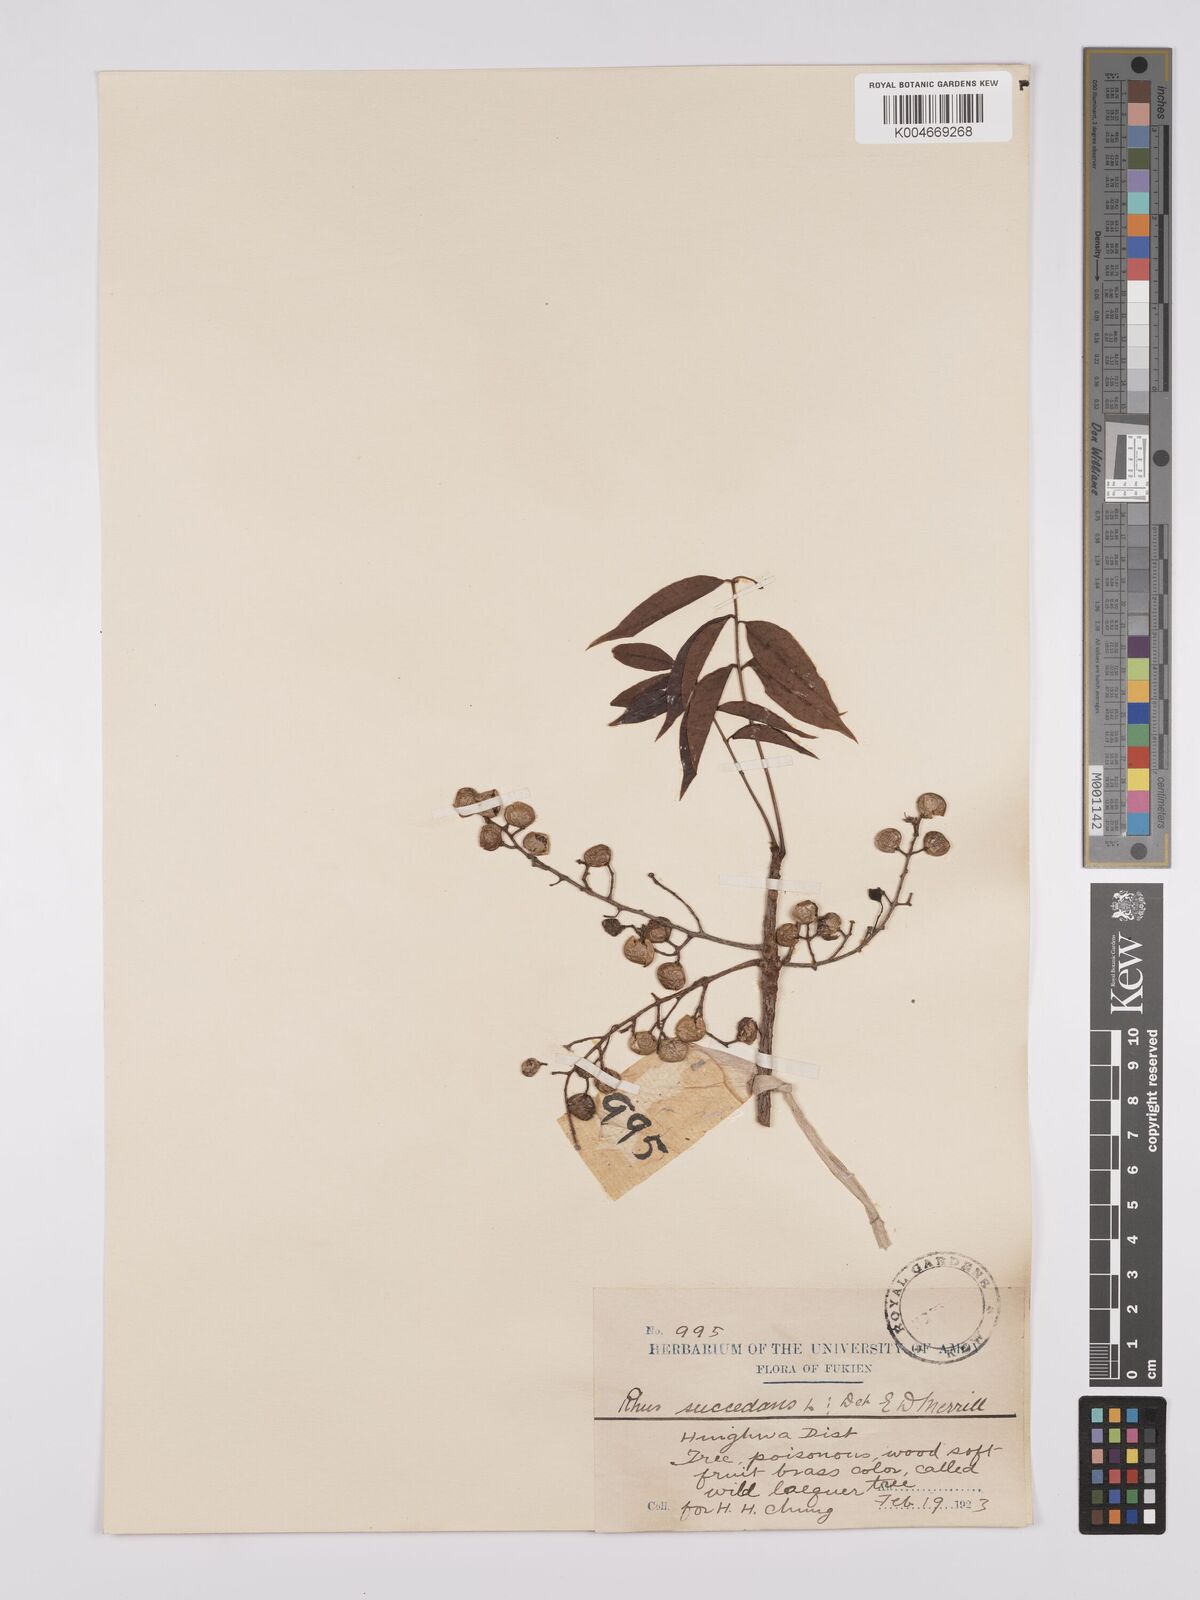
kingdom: Plantae
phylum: Tracheophyta
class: Magnoliopsida
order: Sapindales
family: Anacardiaceae
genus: Toxicodendron
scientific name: Toxicodendron succedaneum
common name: Wax tree
